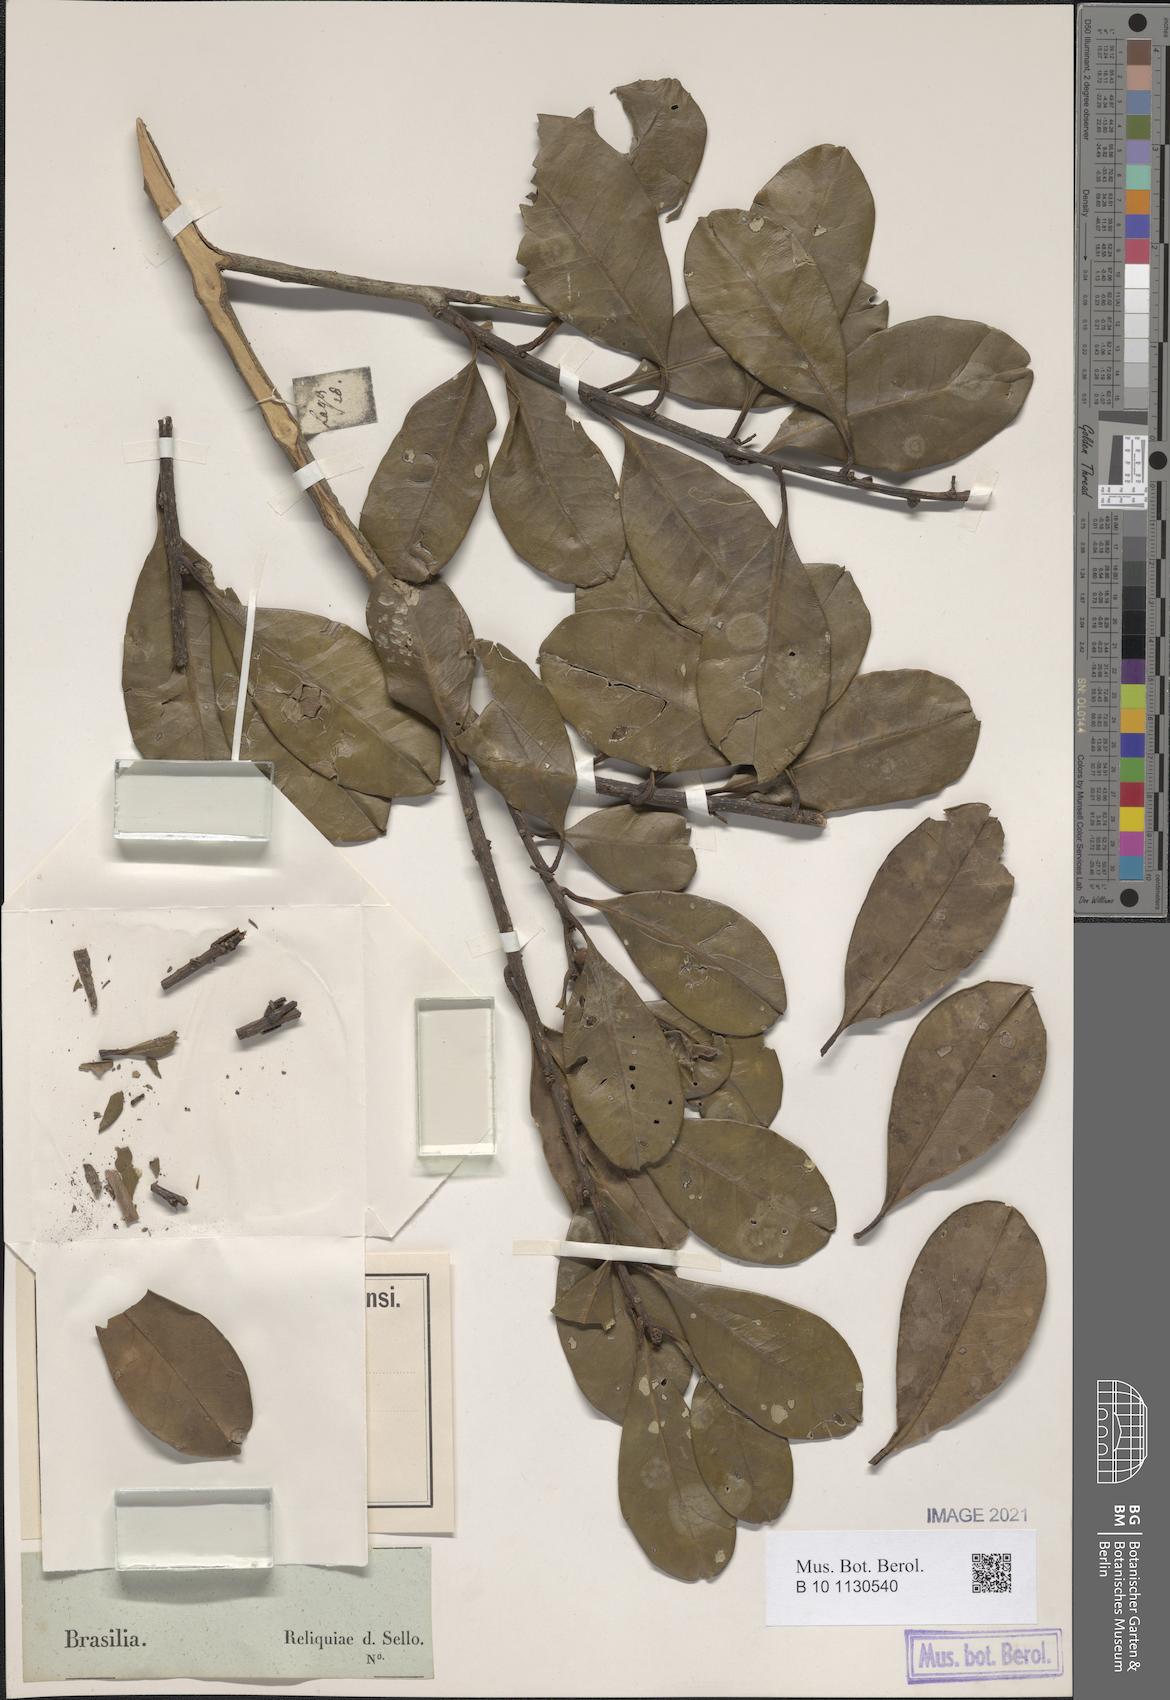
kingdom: Plantae
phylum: Tracheophyta
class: Magnoliopsida
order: Aquifoliales
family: Aquifoliaceae
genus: Ilex
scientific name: Ilex theezans
